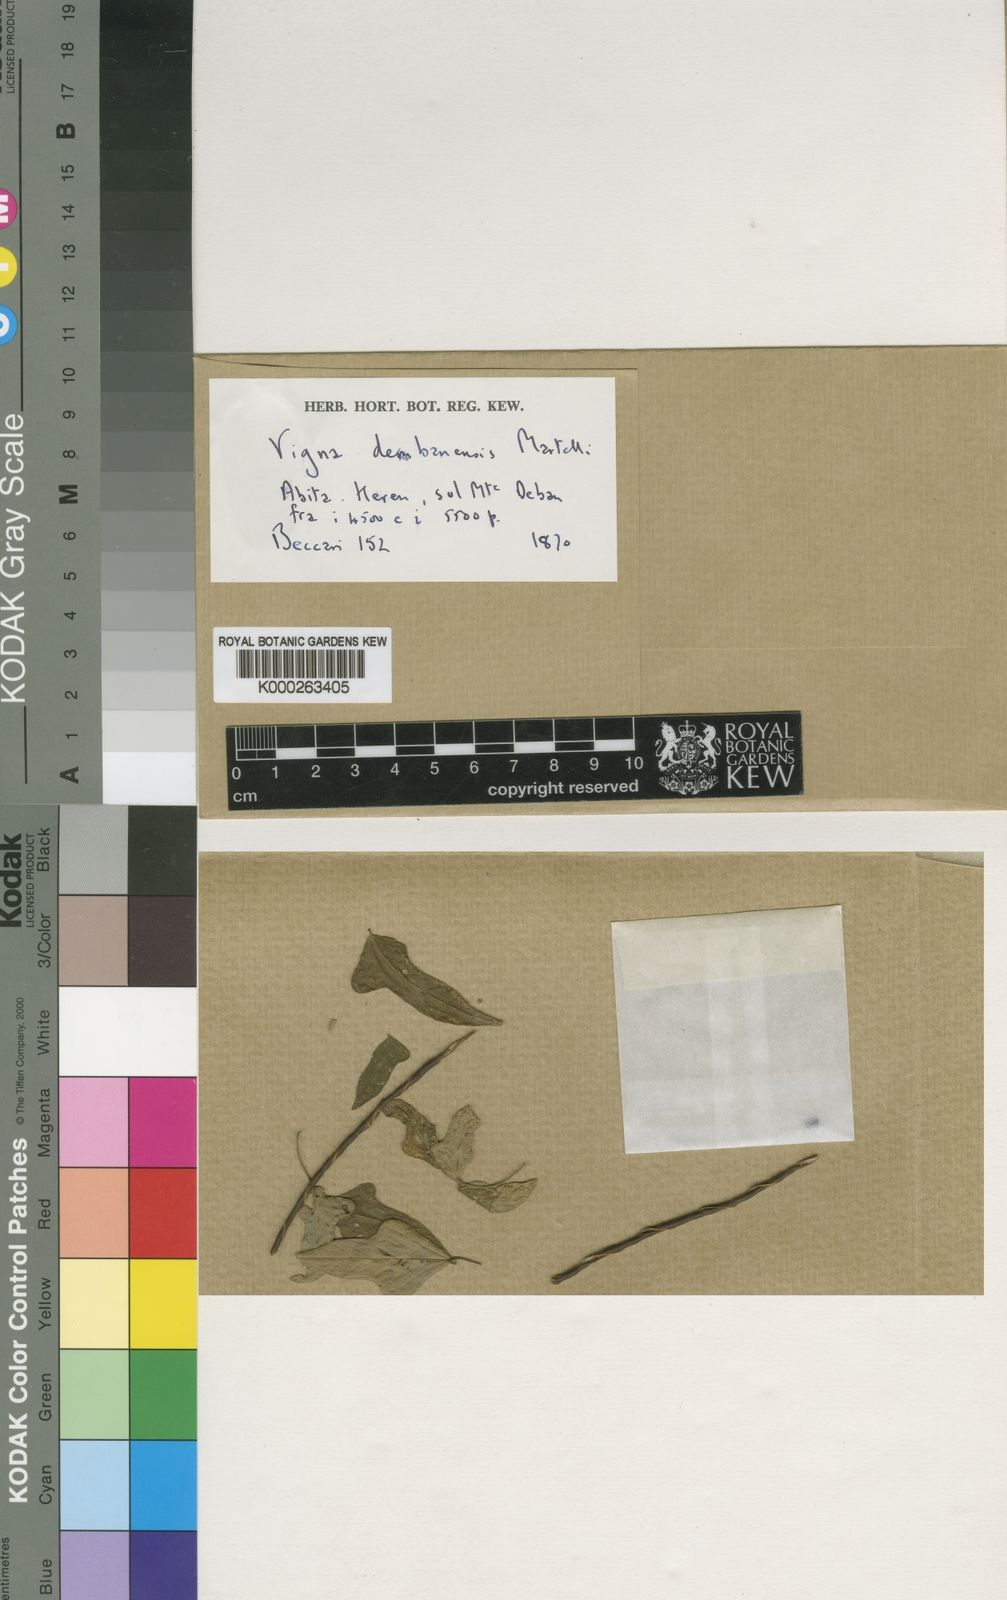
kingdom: Plantae
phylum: Tracheophyta
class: Magnoliopsida
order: Fabales
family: Fabaceae
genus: Vigna
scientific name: Vigna debanensis
